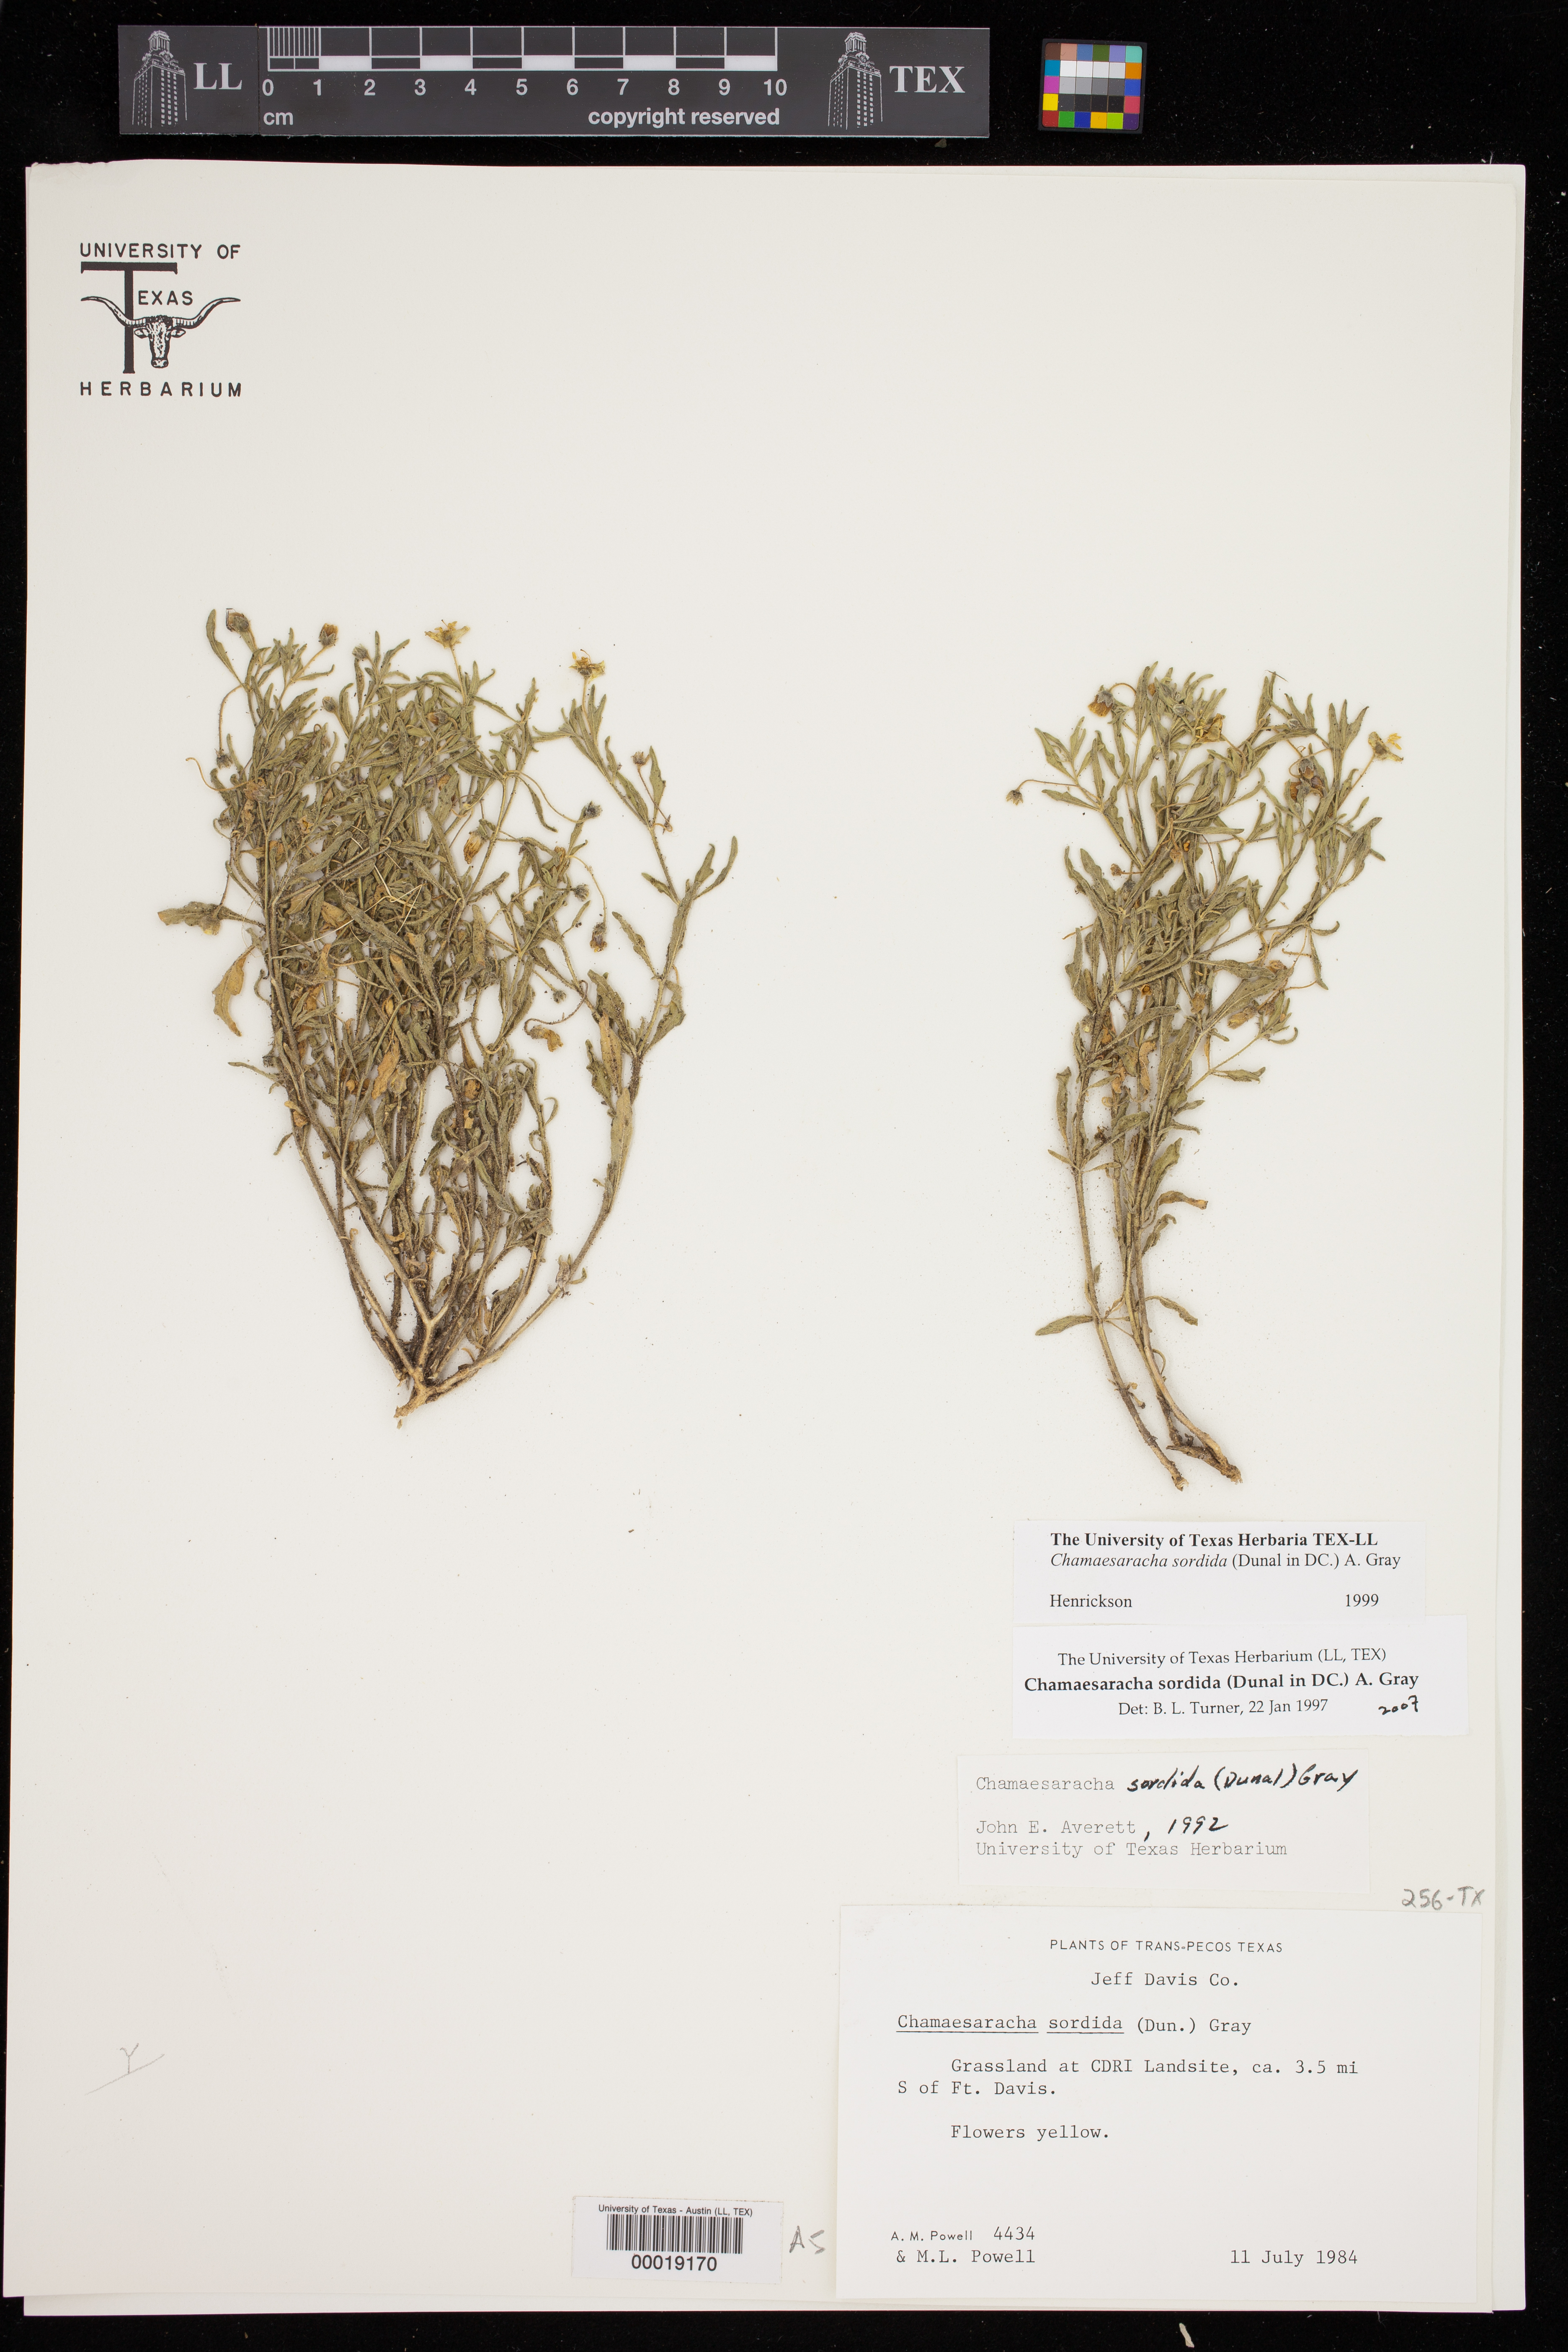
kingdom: Plantae
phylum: Tracheophyta
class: Magnoliopsida
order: Solanales
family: Solanaceae
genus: Chamaesaracha
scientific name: Chamaesaracha sordida
